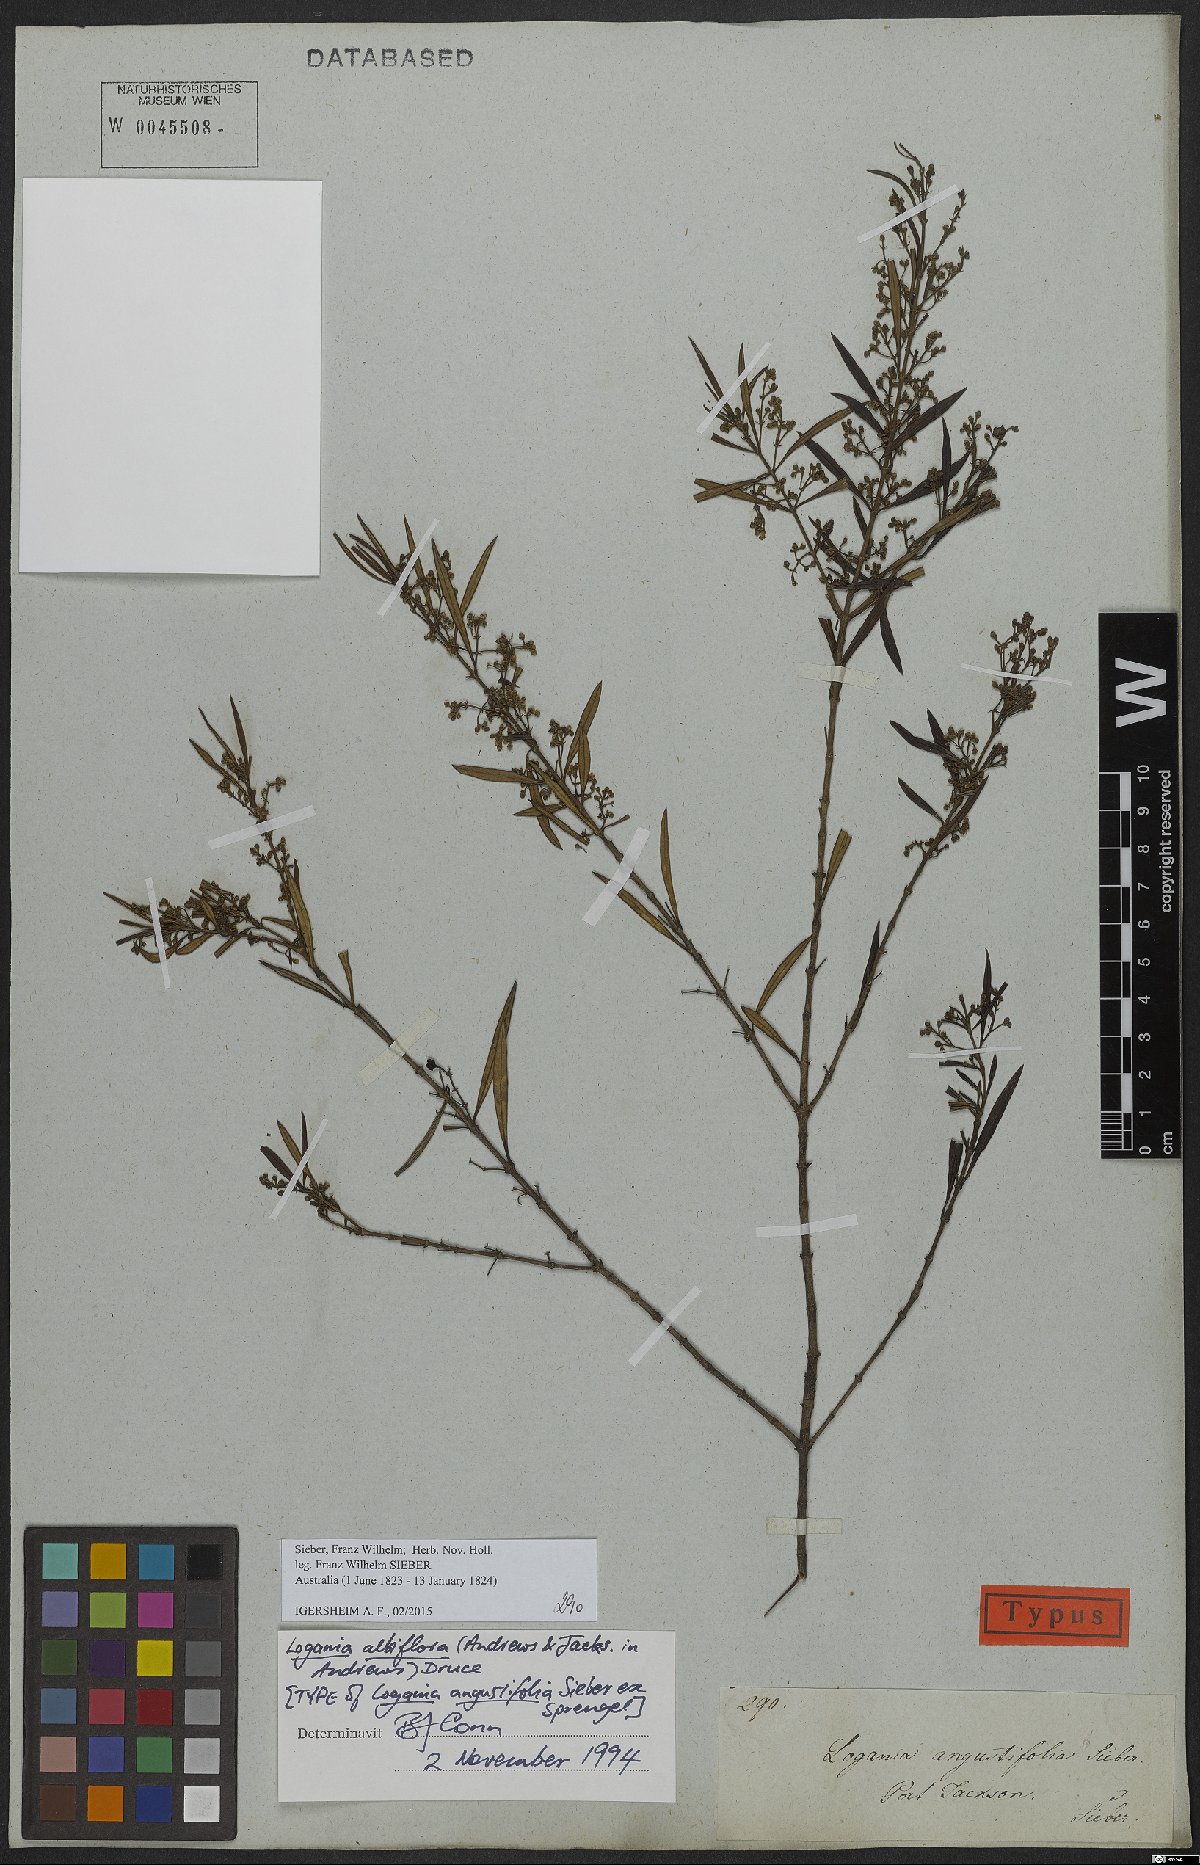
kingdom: Plantae
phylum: Tracheophyta
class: Magnoliopsida
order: Gentianales
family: Loganiaceae
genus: Logania
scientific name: Logania albiflora
